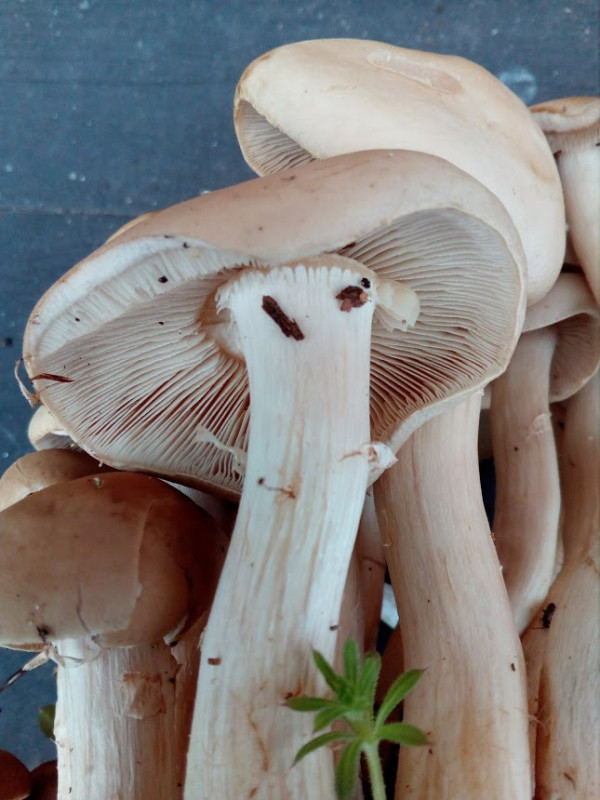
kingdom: Fungi
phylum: Basidiomycota
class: Agaricomycetes
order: Agaricales
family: Strophariaceae
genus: Agrocybe
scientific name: Agrocybe praecox
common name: tidlig agerhat
